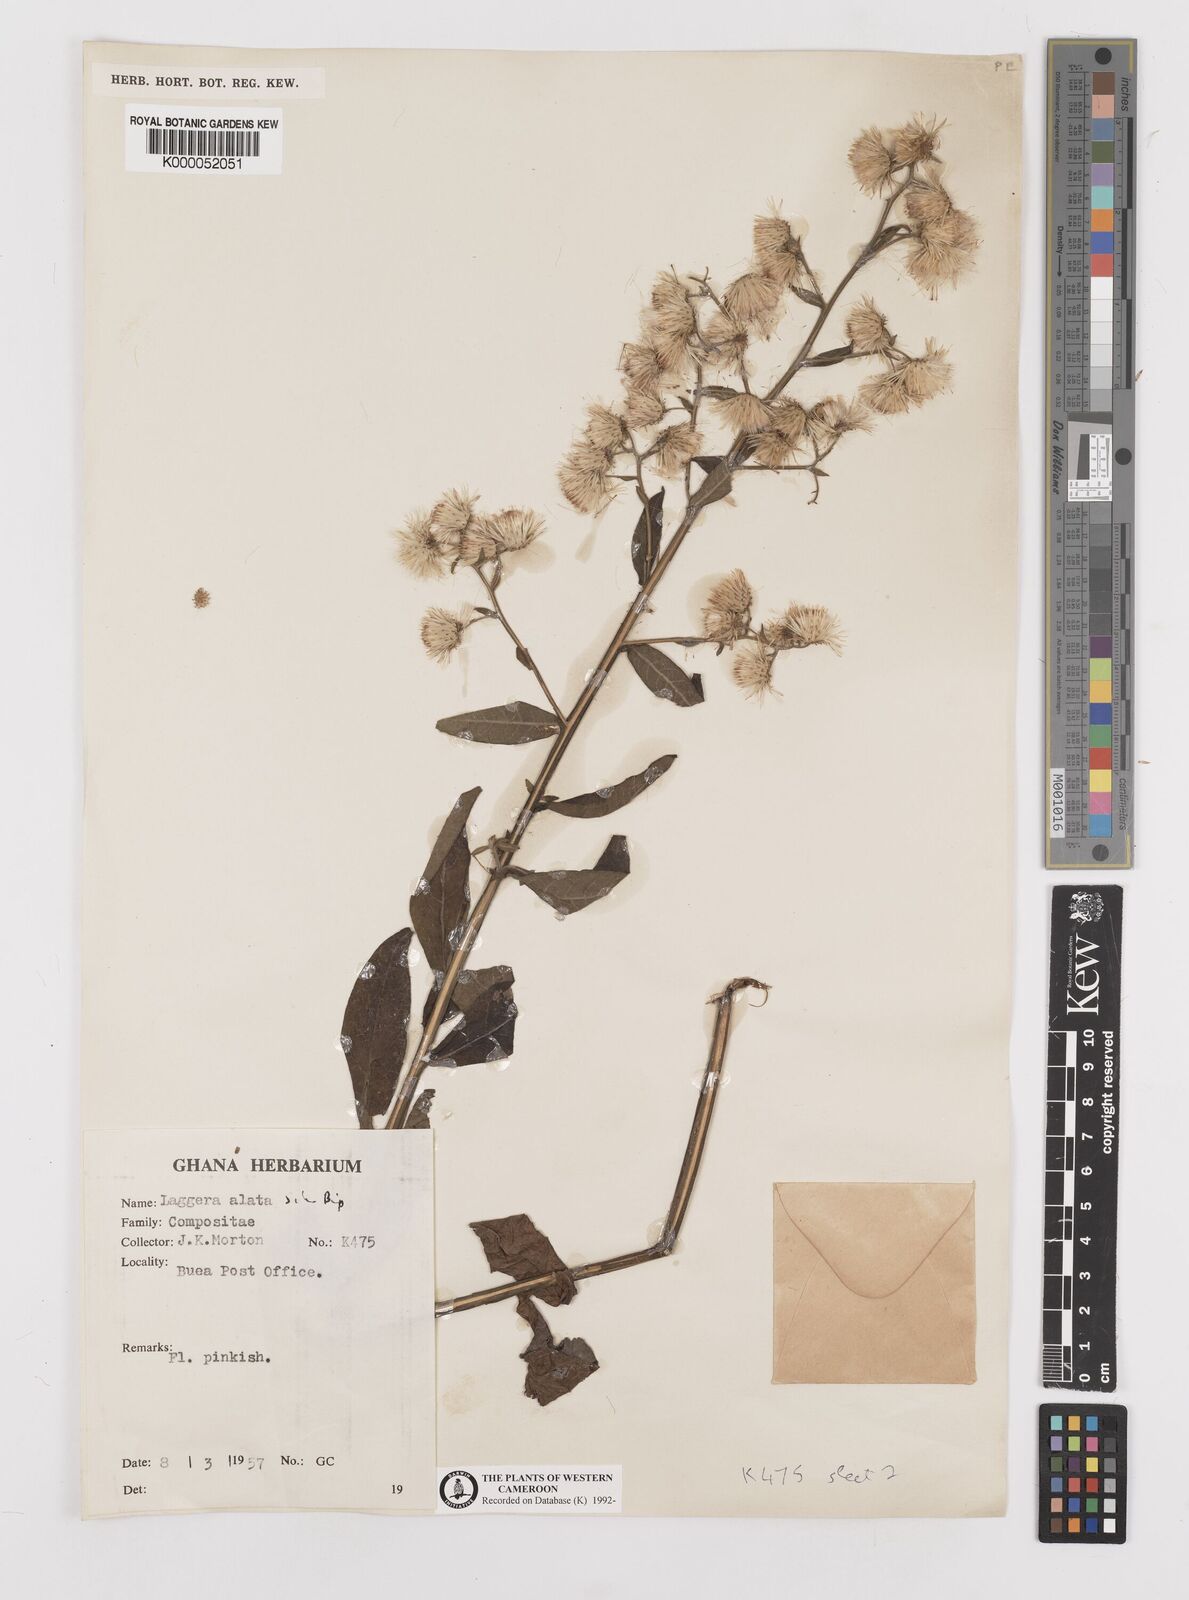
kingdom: Plantae
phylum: Tracheophyta
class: Magnoliopsida
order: Asterales
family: Asteraceae
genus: Laggera
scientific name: Laggera crispata
